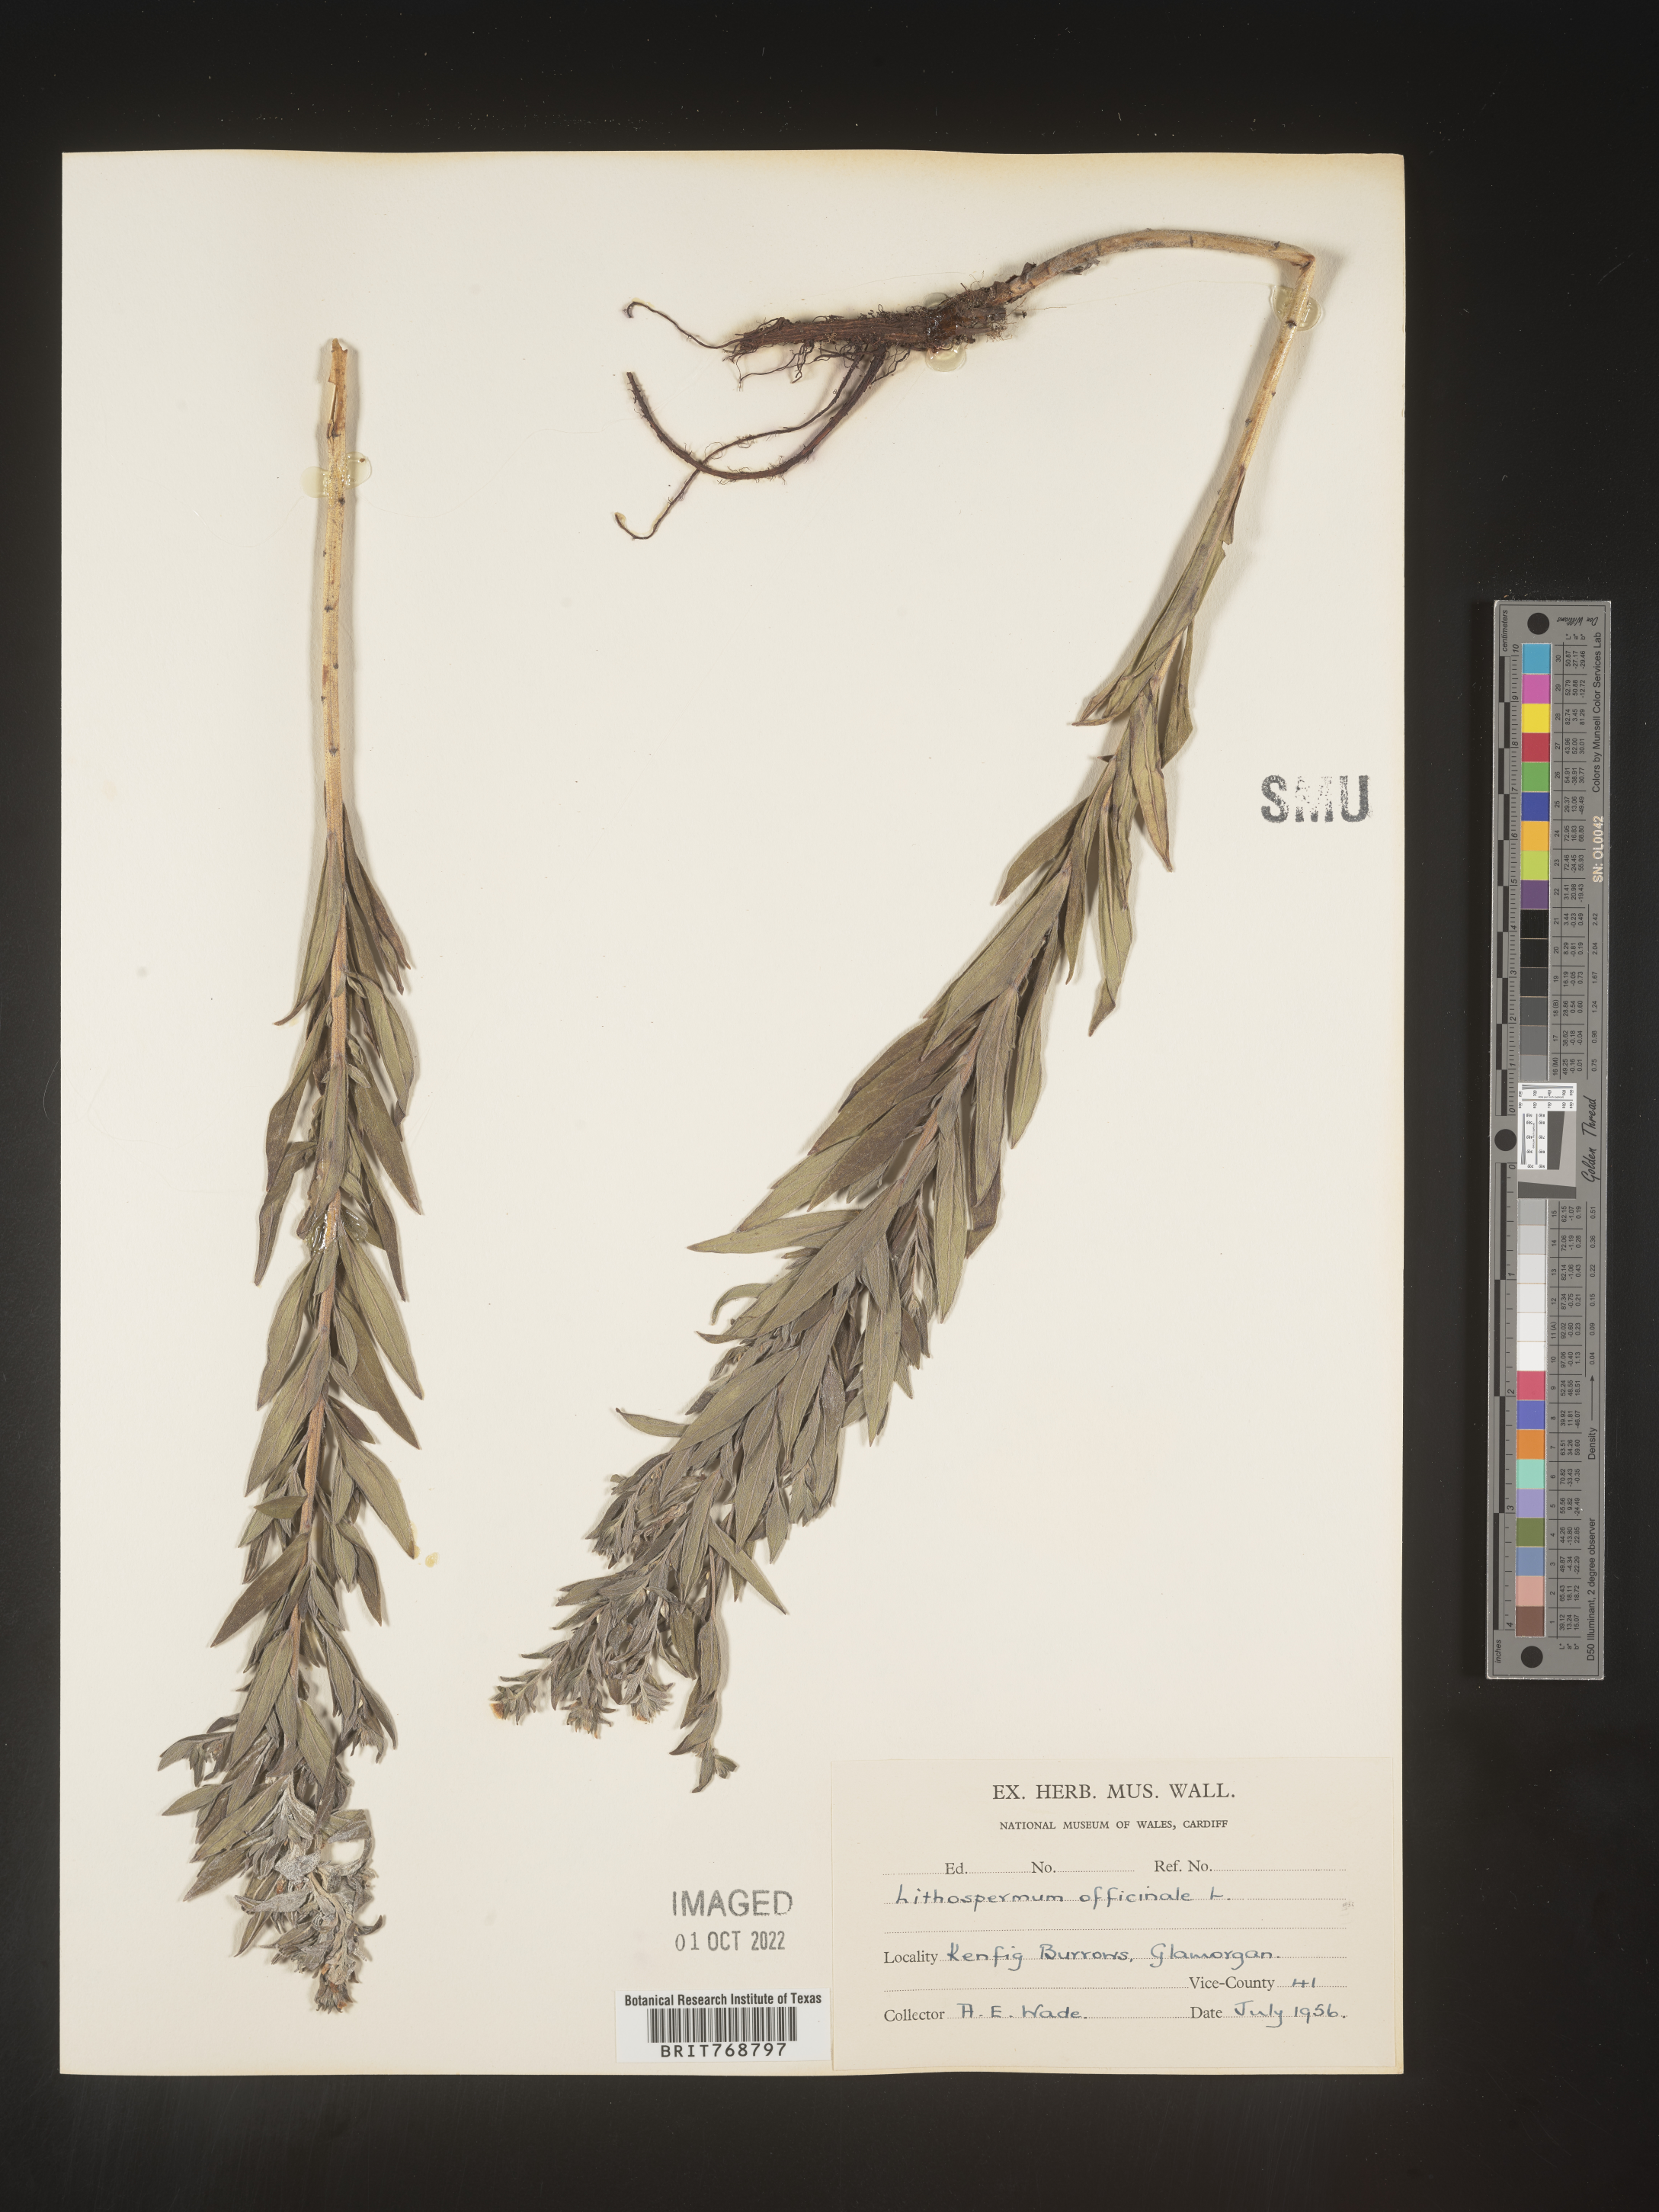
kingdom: Plantae
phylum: Tracheophyta
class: Magnoliopsida
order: Boraginales
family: Boraginaceae
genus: Lithospermum
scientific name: Lithospermum
